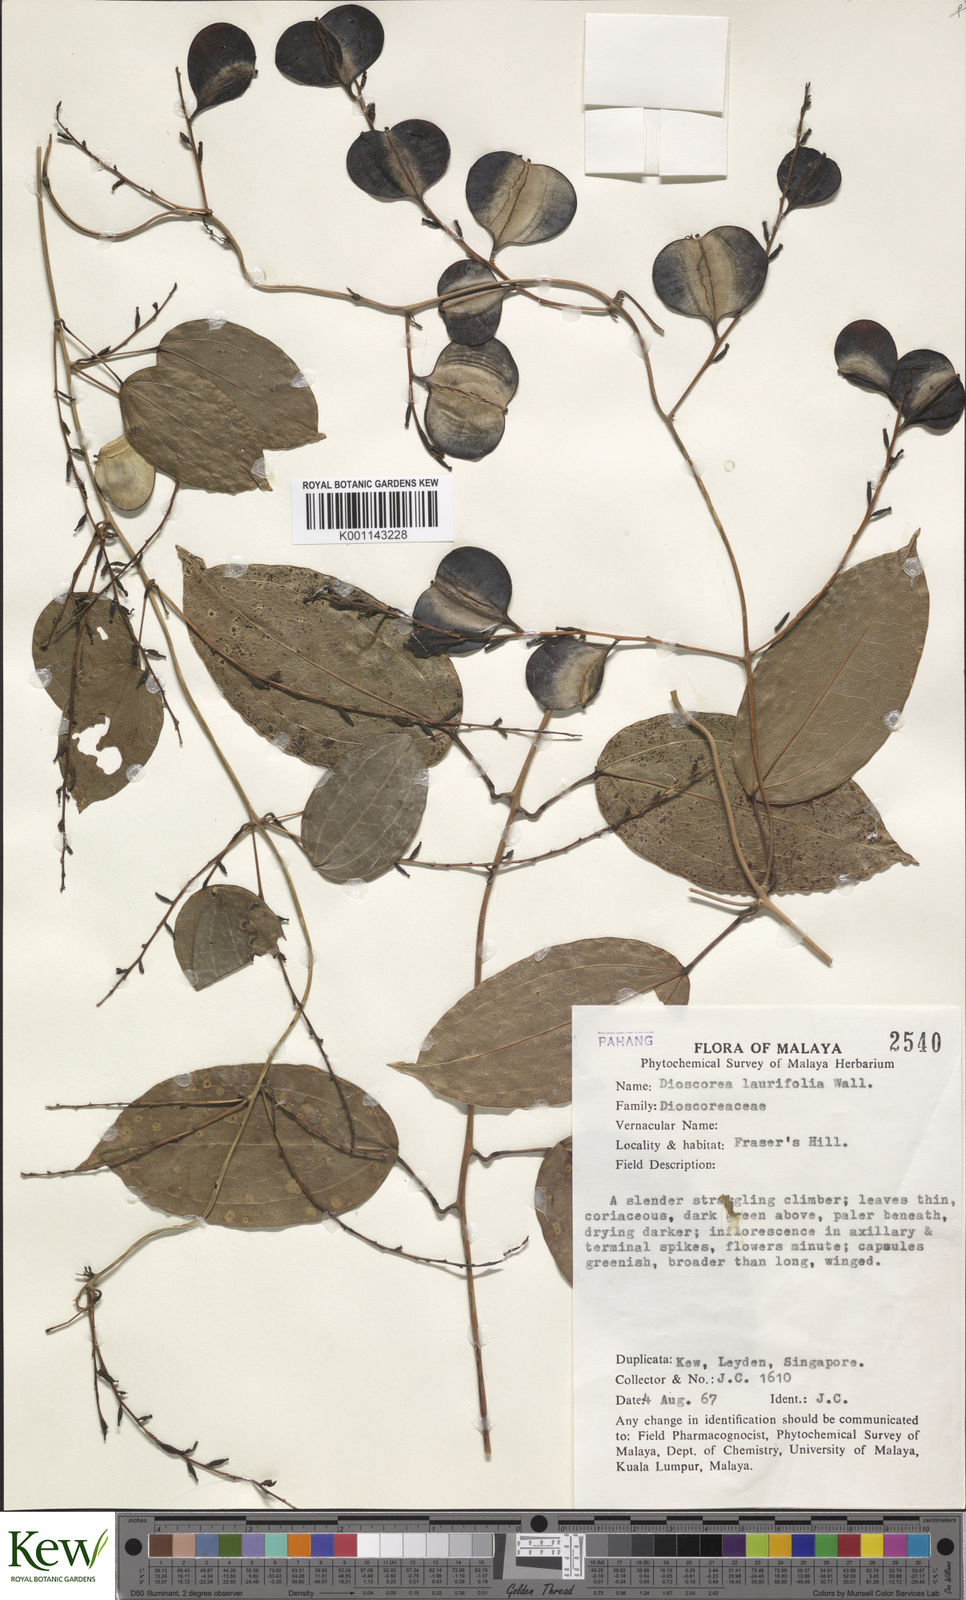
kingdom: Plantae
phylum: Tracheophyta
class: Liliopsida
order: Dioscoreales
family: Dioscoreaceae
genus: Dioscorea
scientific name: Dioscorea laurifolia
